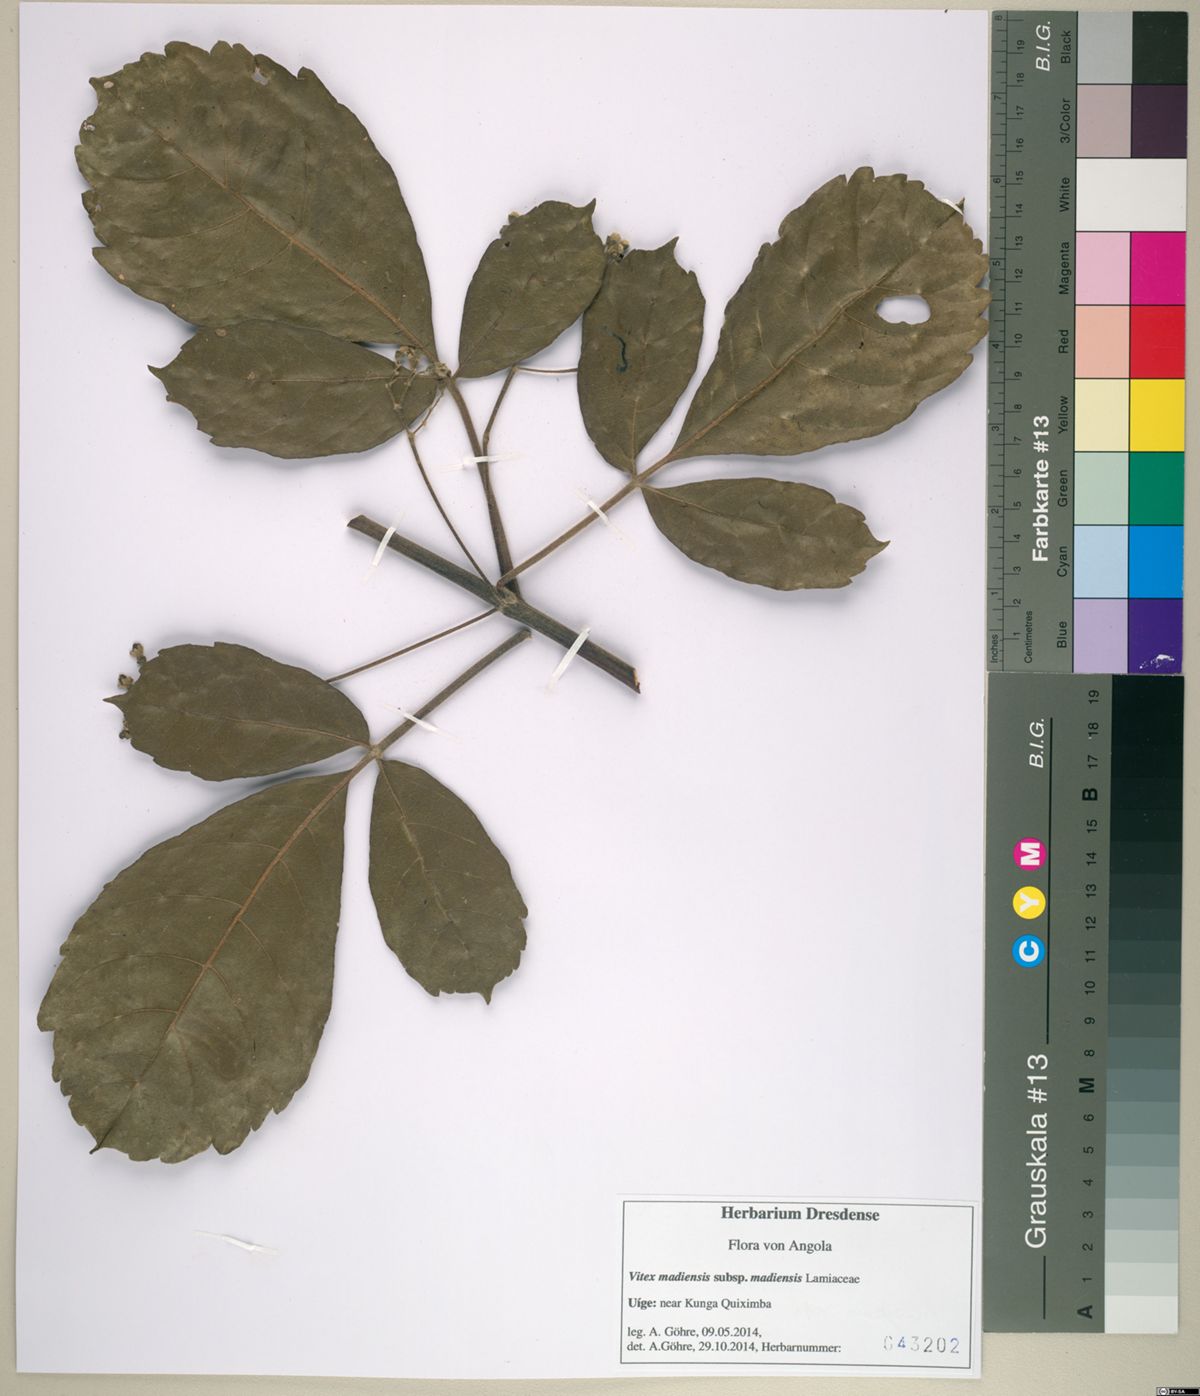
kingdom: Plantae
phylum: Tracheophyta
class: Magnoliopsida
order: Lamiales
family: Lamiaceae
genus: Vitex
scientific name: Vitex madiensis
